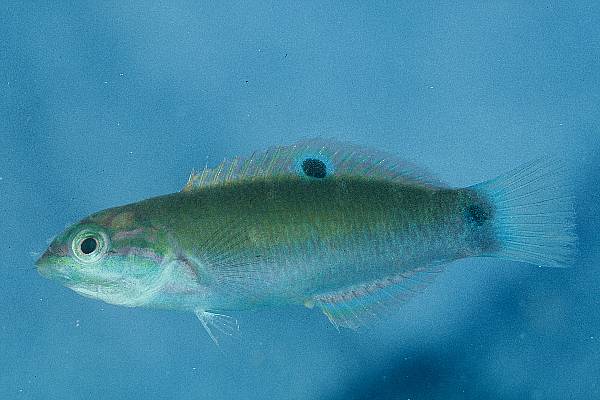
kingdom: Animalia
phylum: Chordata
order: Perciformes
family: Labridae
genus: Halichoeres
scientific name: Halichoeres cosmetus
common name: Adorned wrasse
